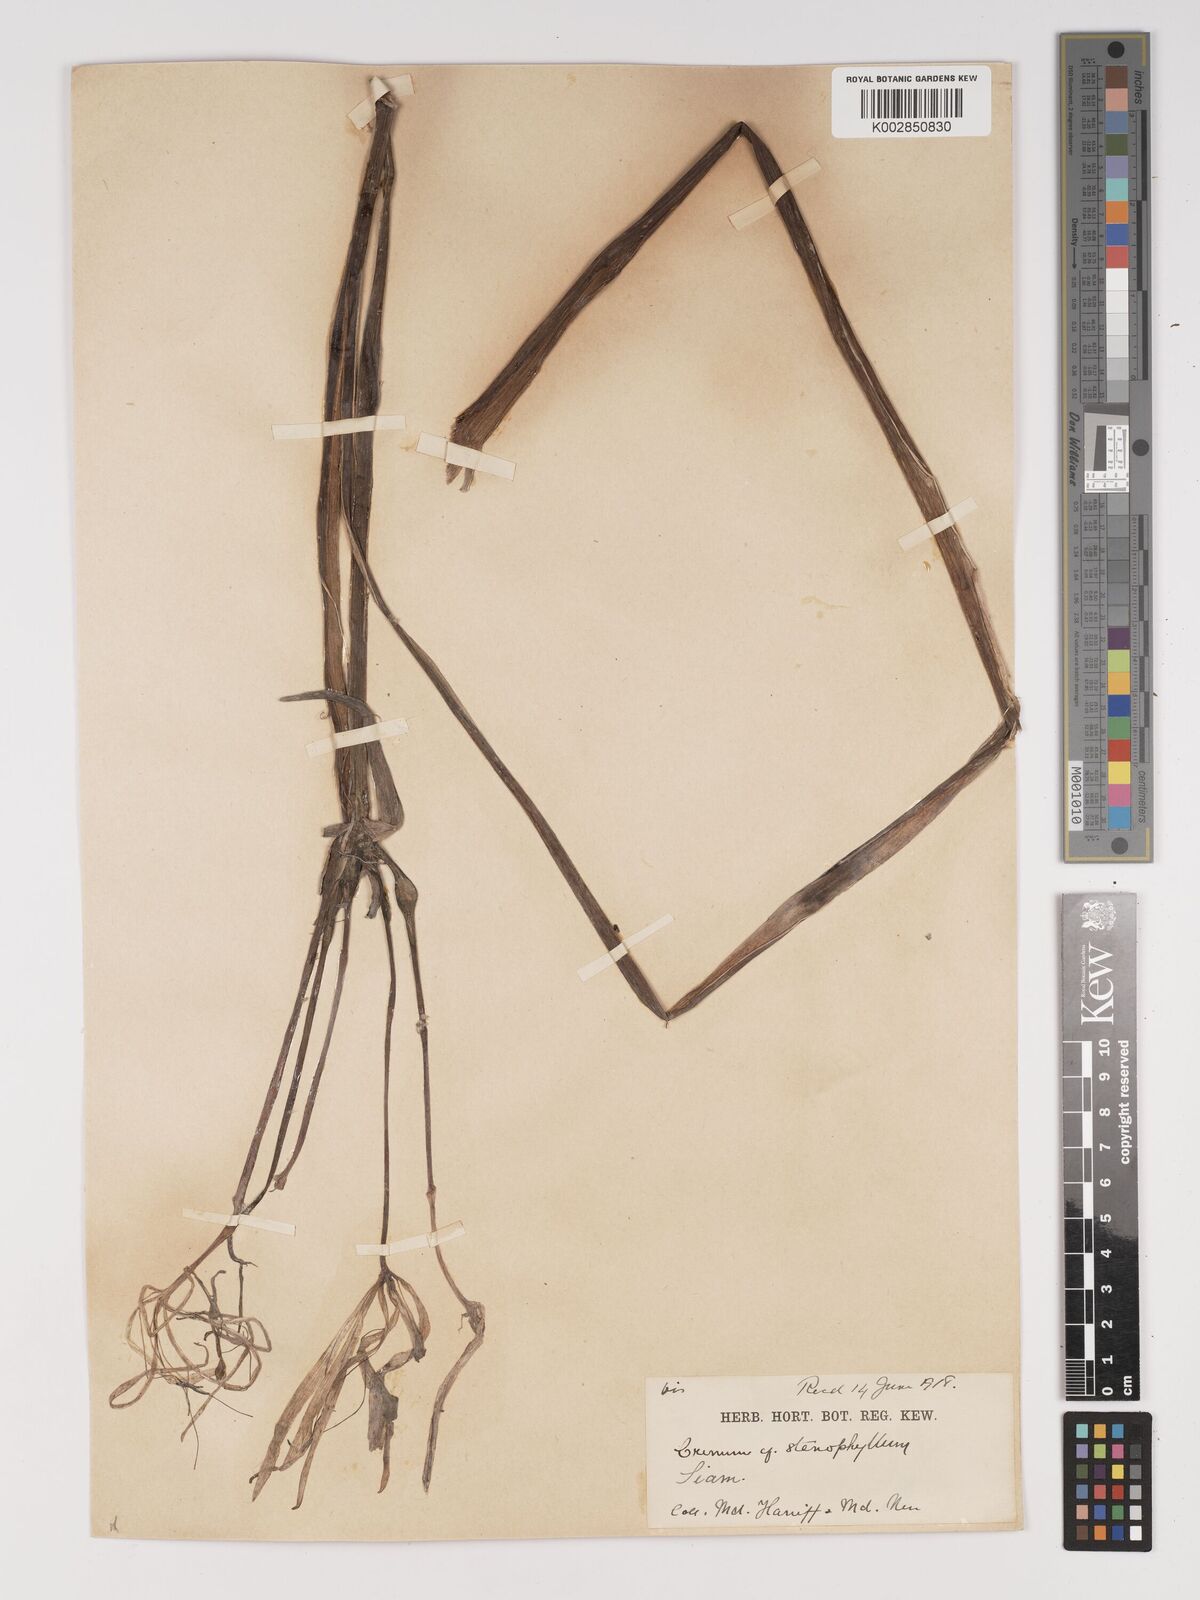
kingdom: Plantae
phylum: Tracheophyta
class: Liliopsida
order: Asparagales
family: Amaryllidaceae
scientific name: Amaryllidaceae
